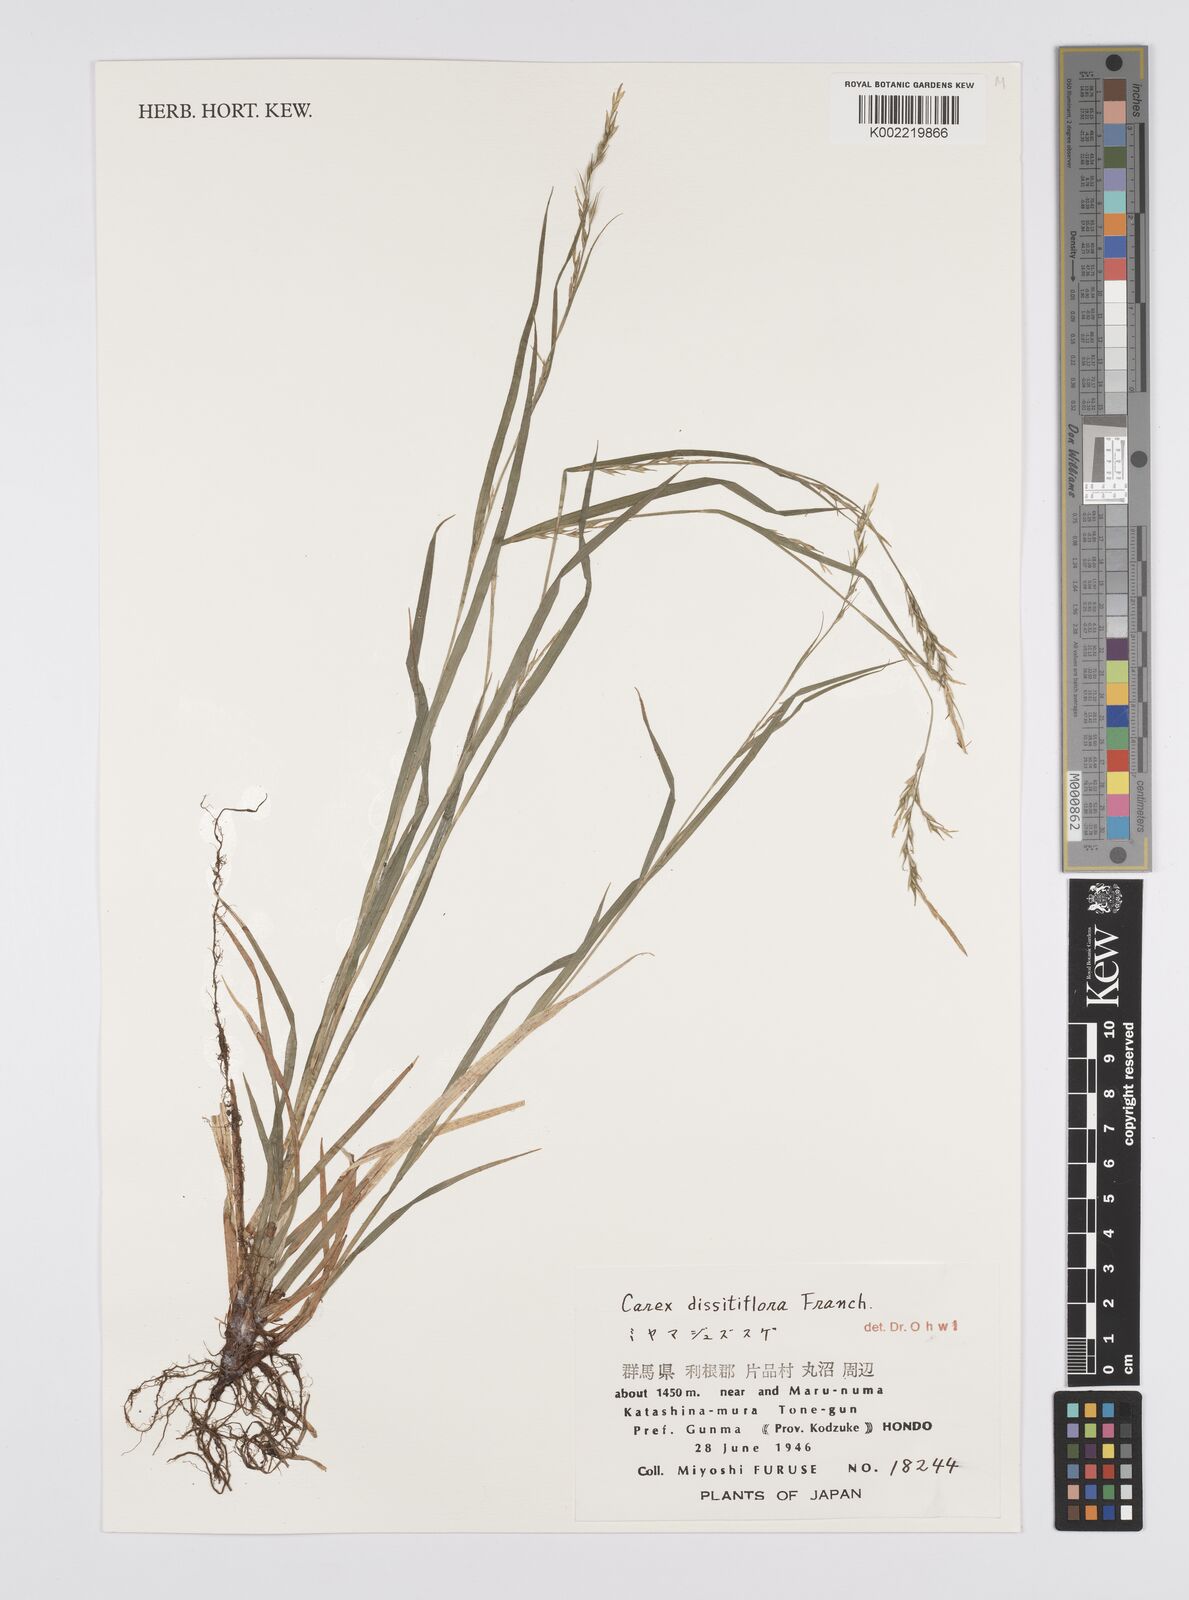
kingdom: Plantae
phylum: Tracheophyta
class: Liliopsida
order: Poales
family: Cyperaceae
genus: Carex
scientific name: Carex dissitiflora
